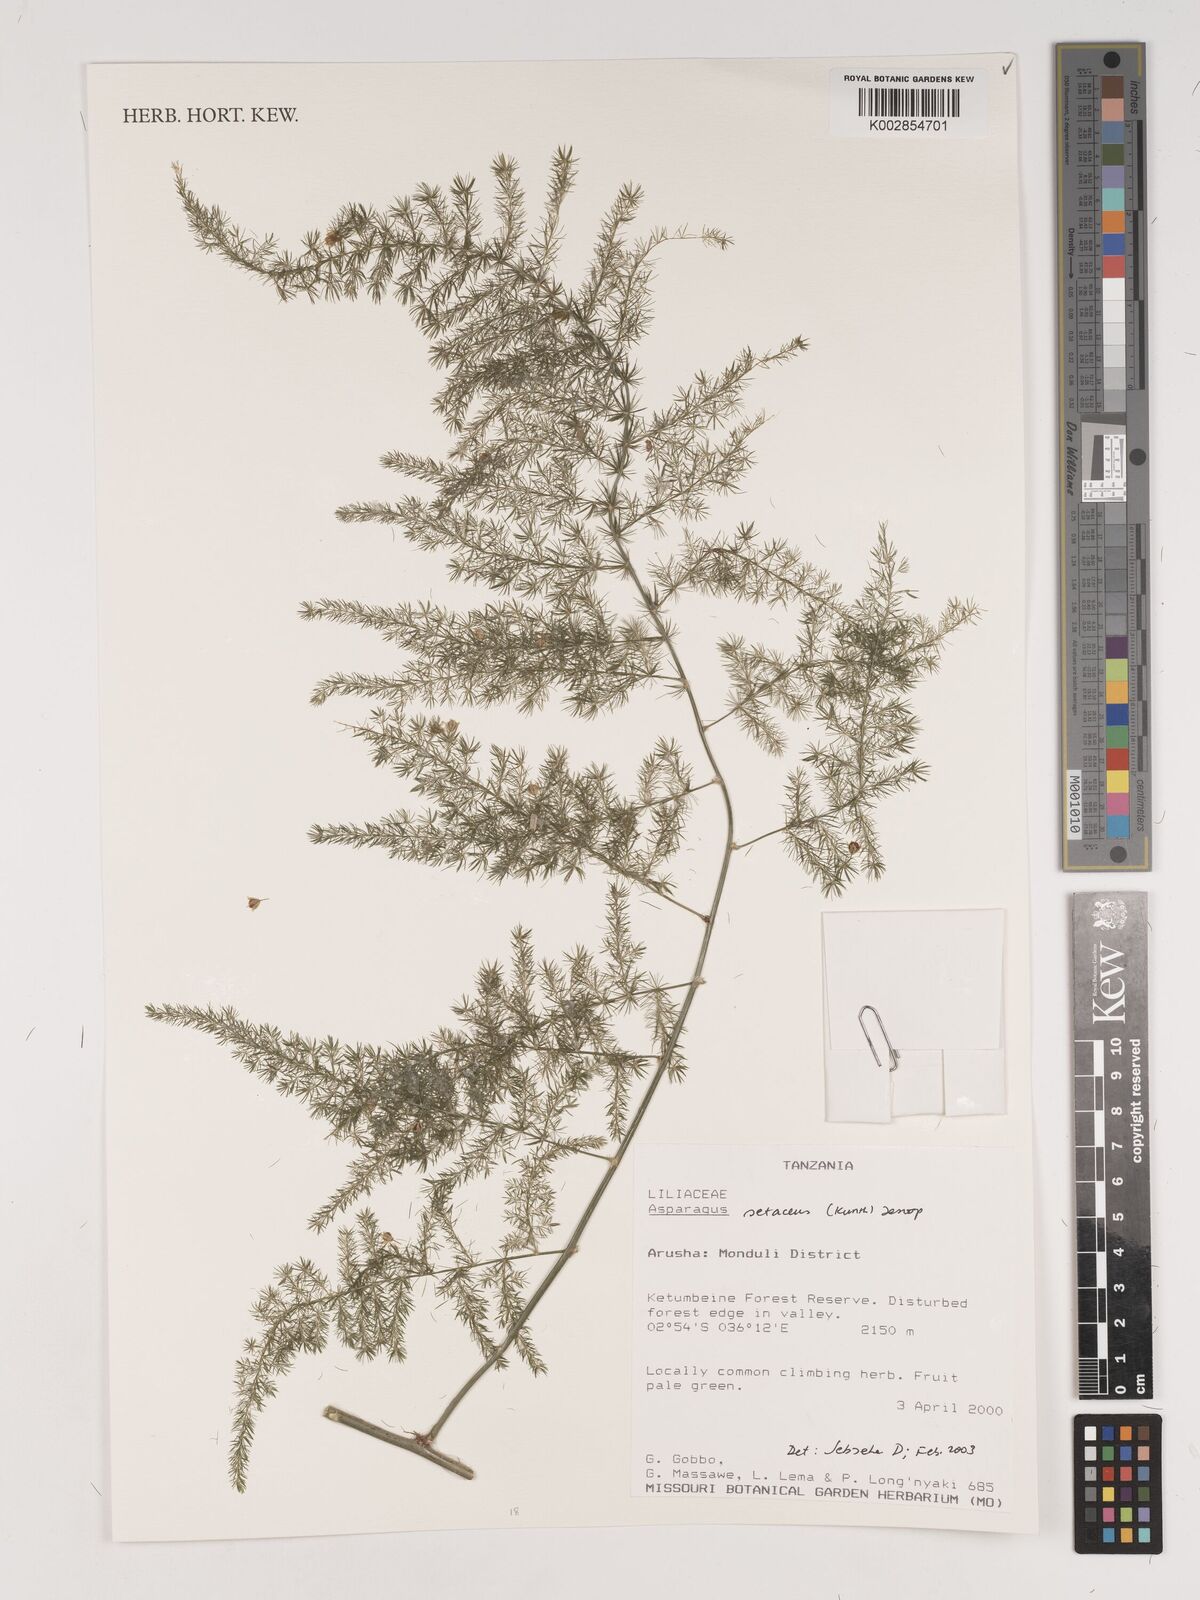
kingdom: Plantae
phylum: Tracheophyta
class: Liliopsida
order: Asparagales
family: Asparagaceae
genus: Asparagus
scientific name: Asparagus setaceus
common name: Common asparagus fern
